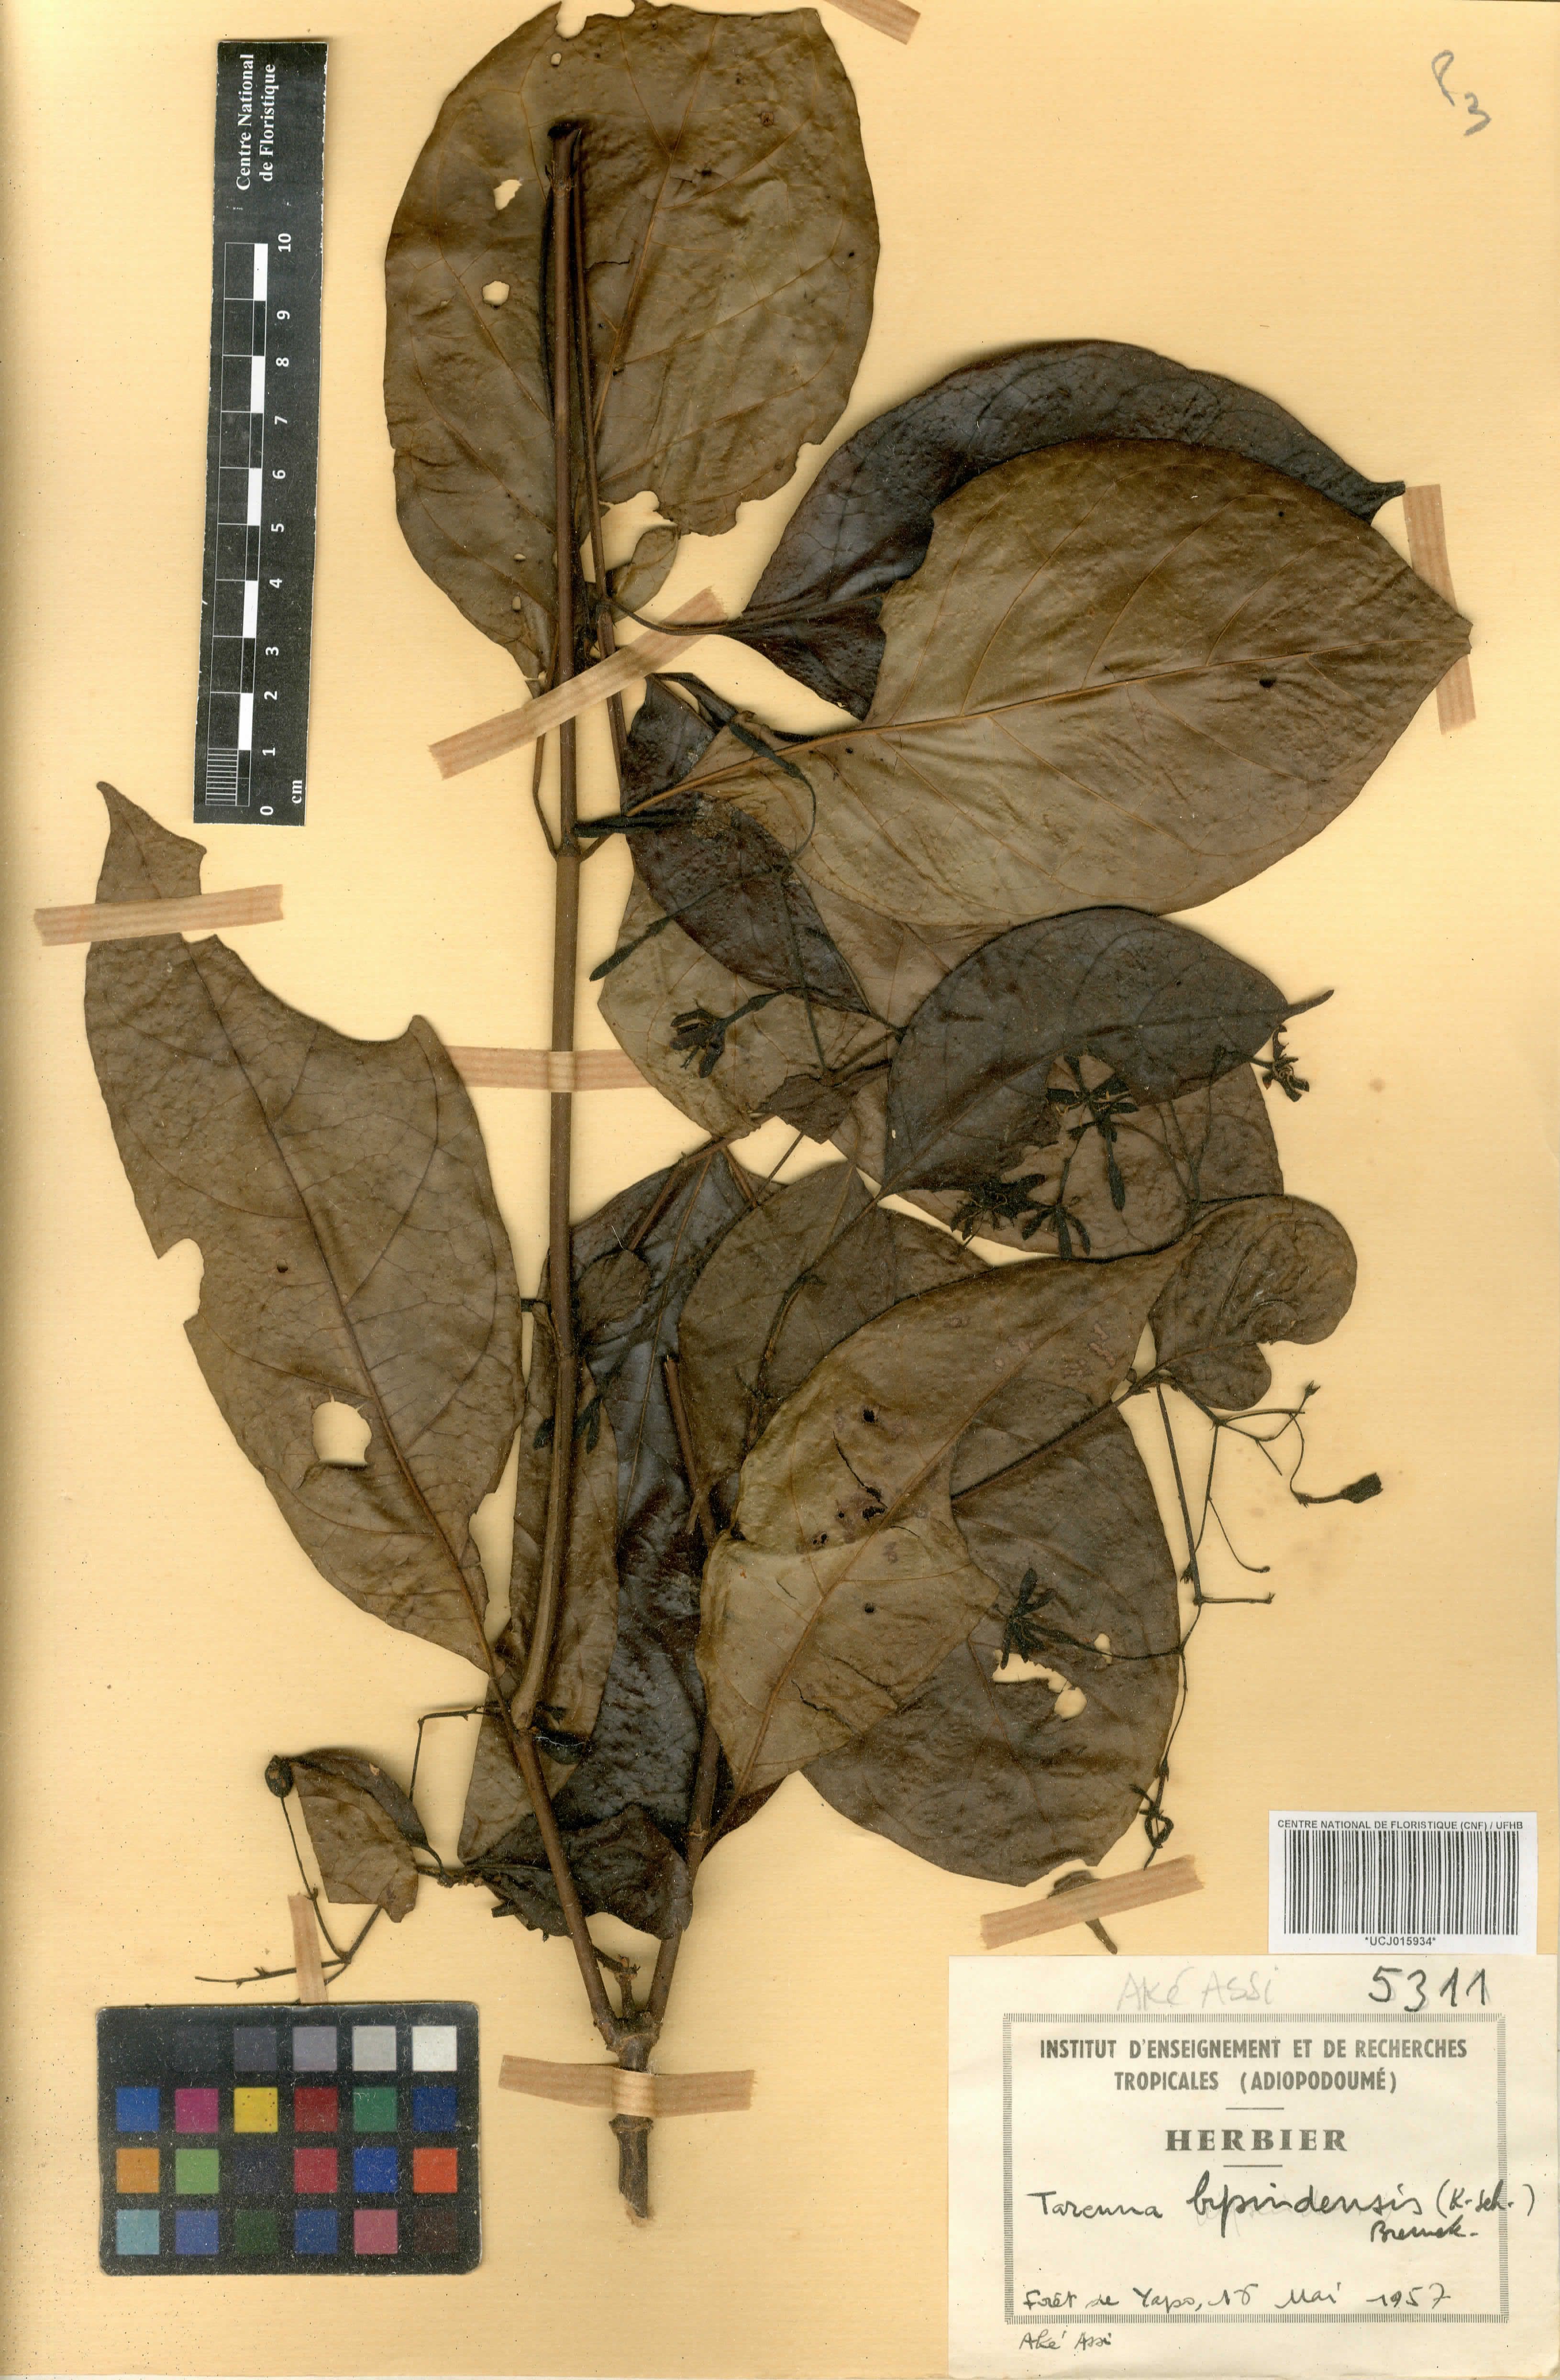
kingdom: Plantae
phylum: Tracheophyta
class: Magnoliopsida
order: Gentianales
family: Rubiaceae
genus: Tarenna
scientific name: Tarenna bipindensis
